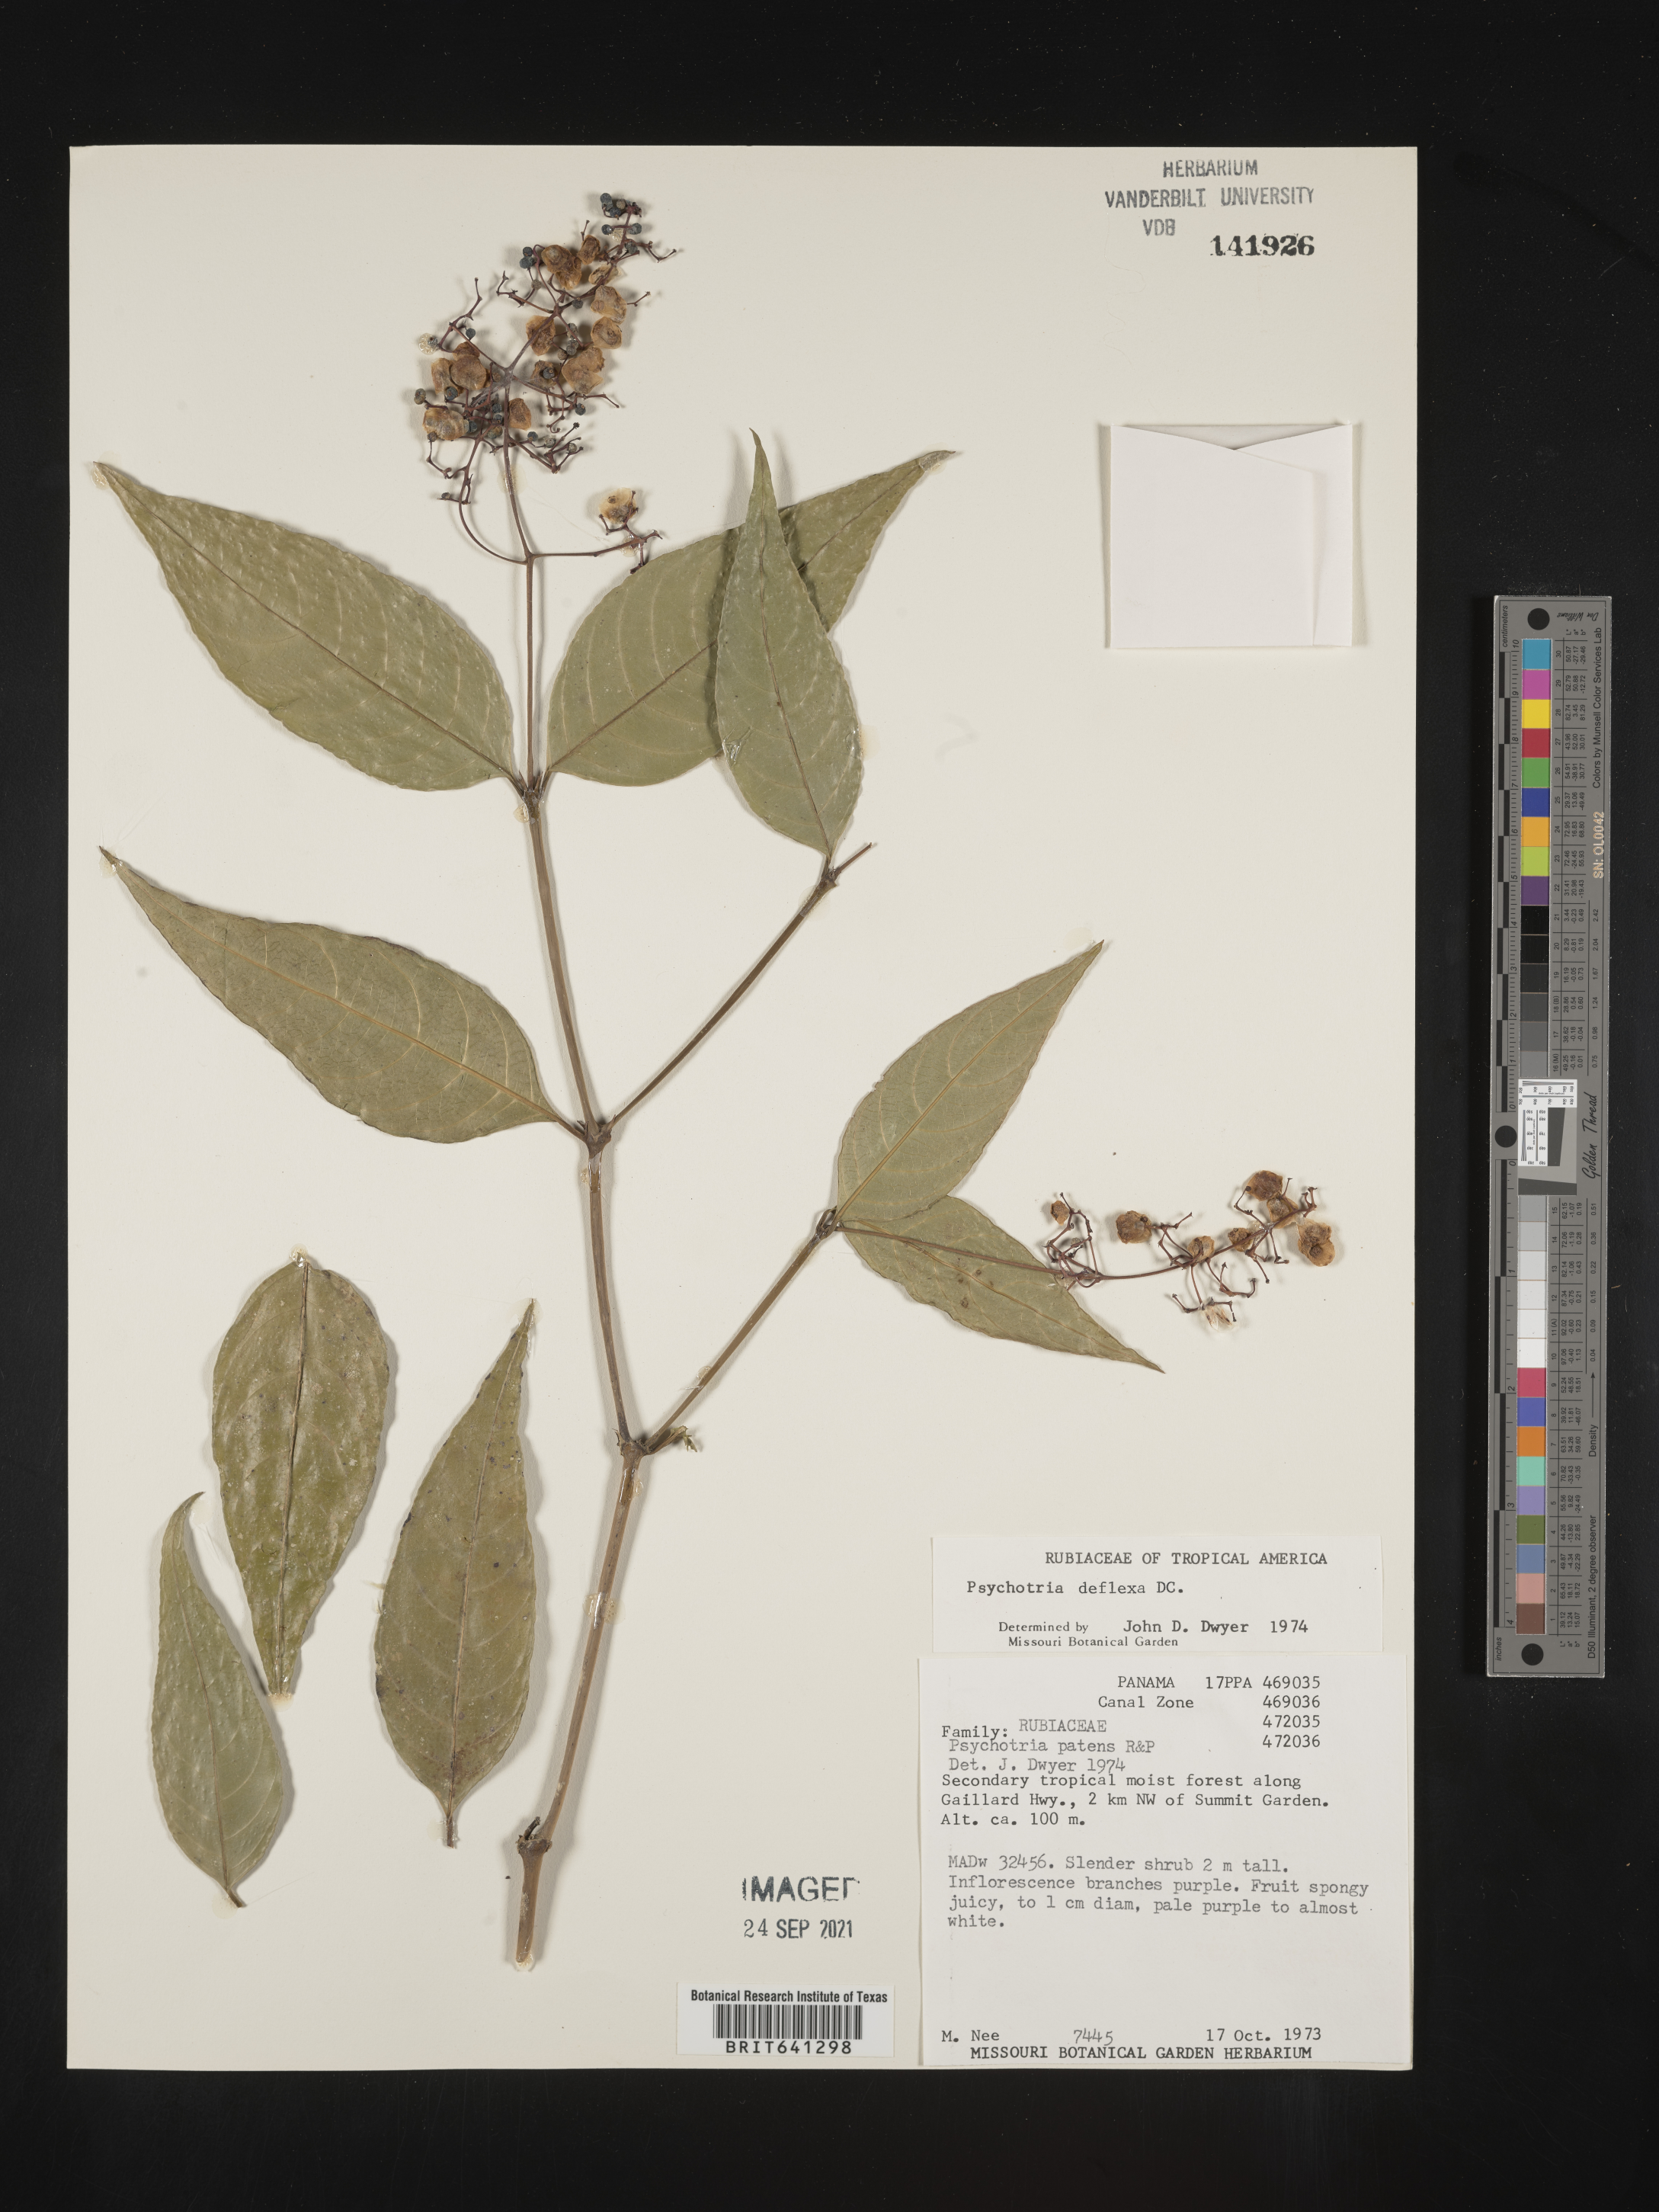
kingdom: Plantae
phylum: Tracheophyta
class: Magnoliopsida
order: Gentianales
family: Rubiaceae
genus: Psychotria
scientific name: Psychotria
